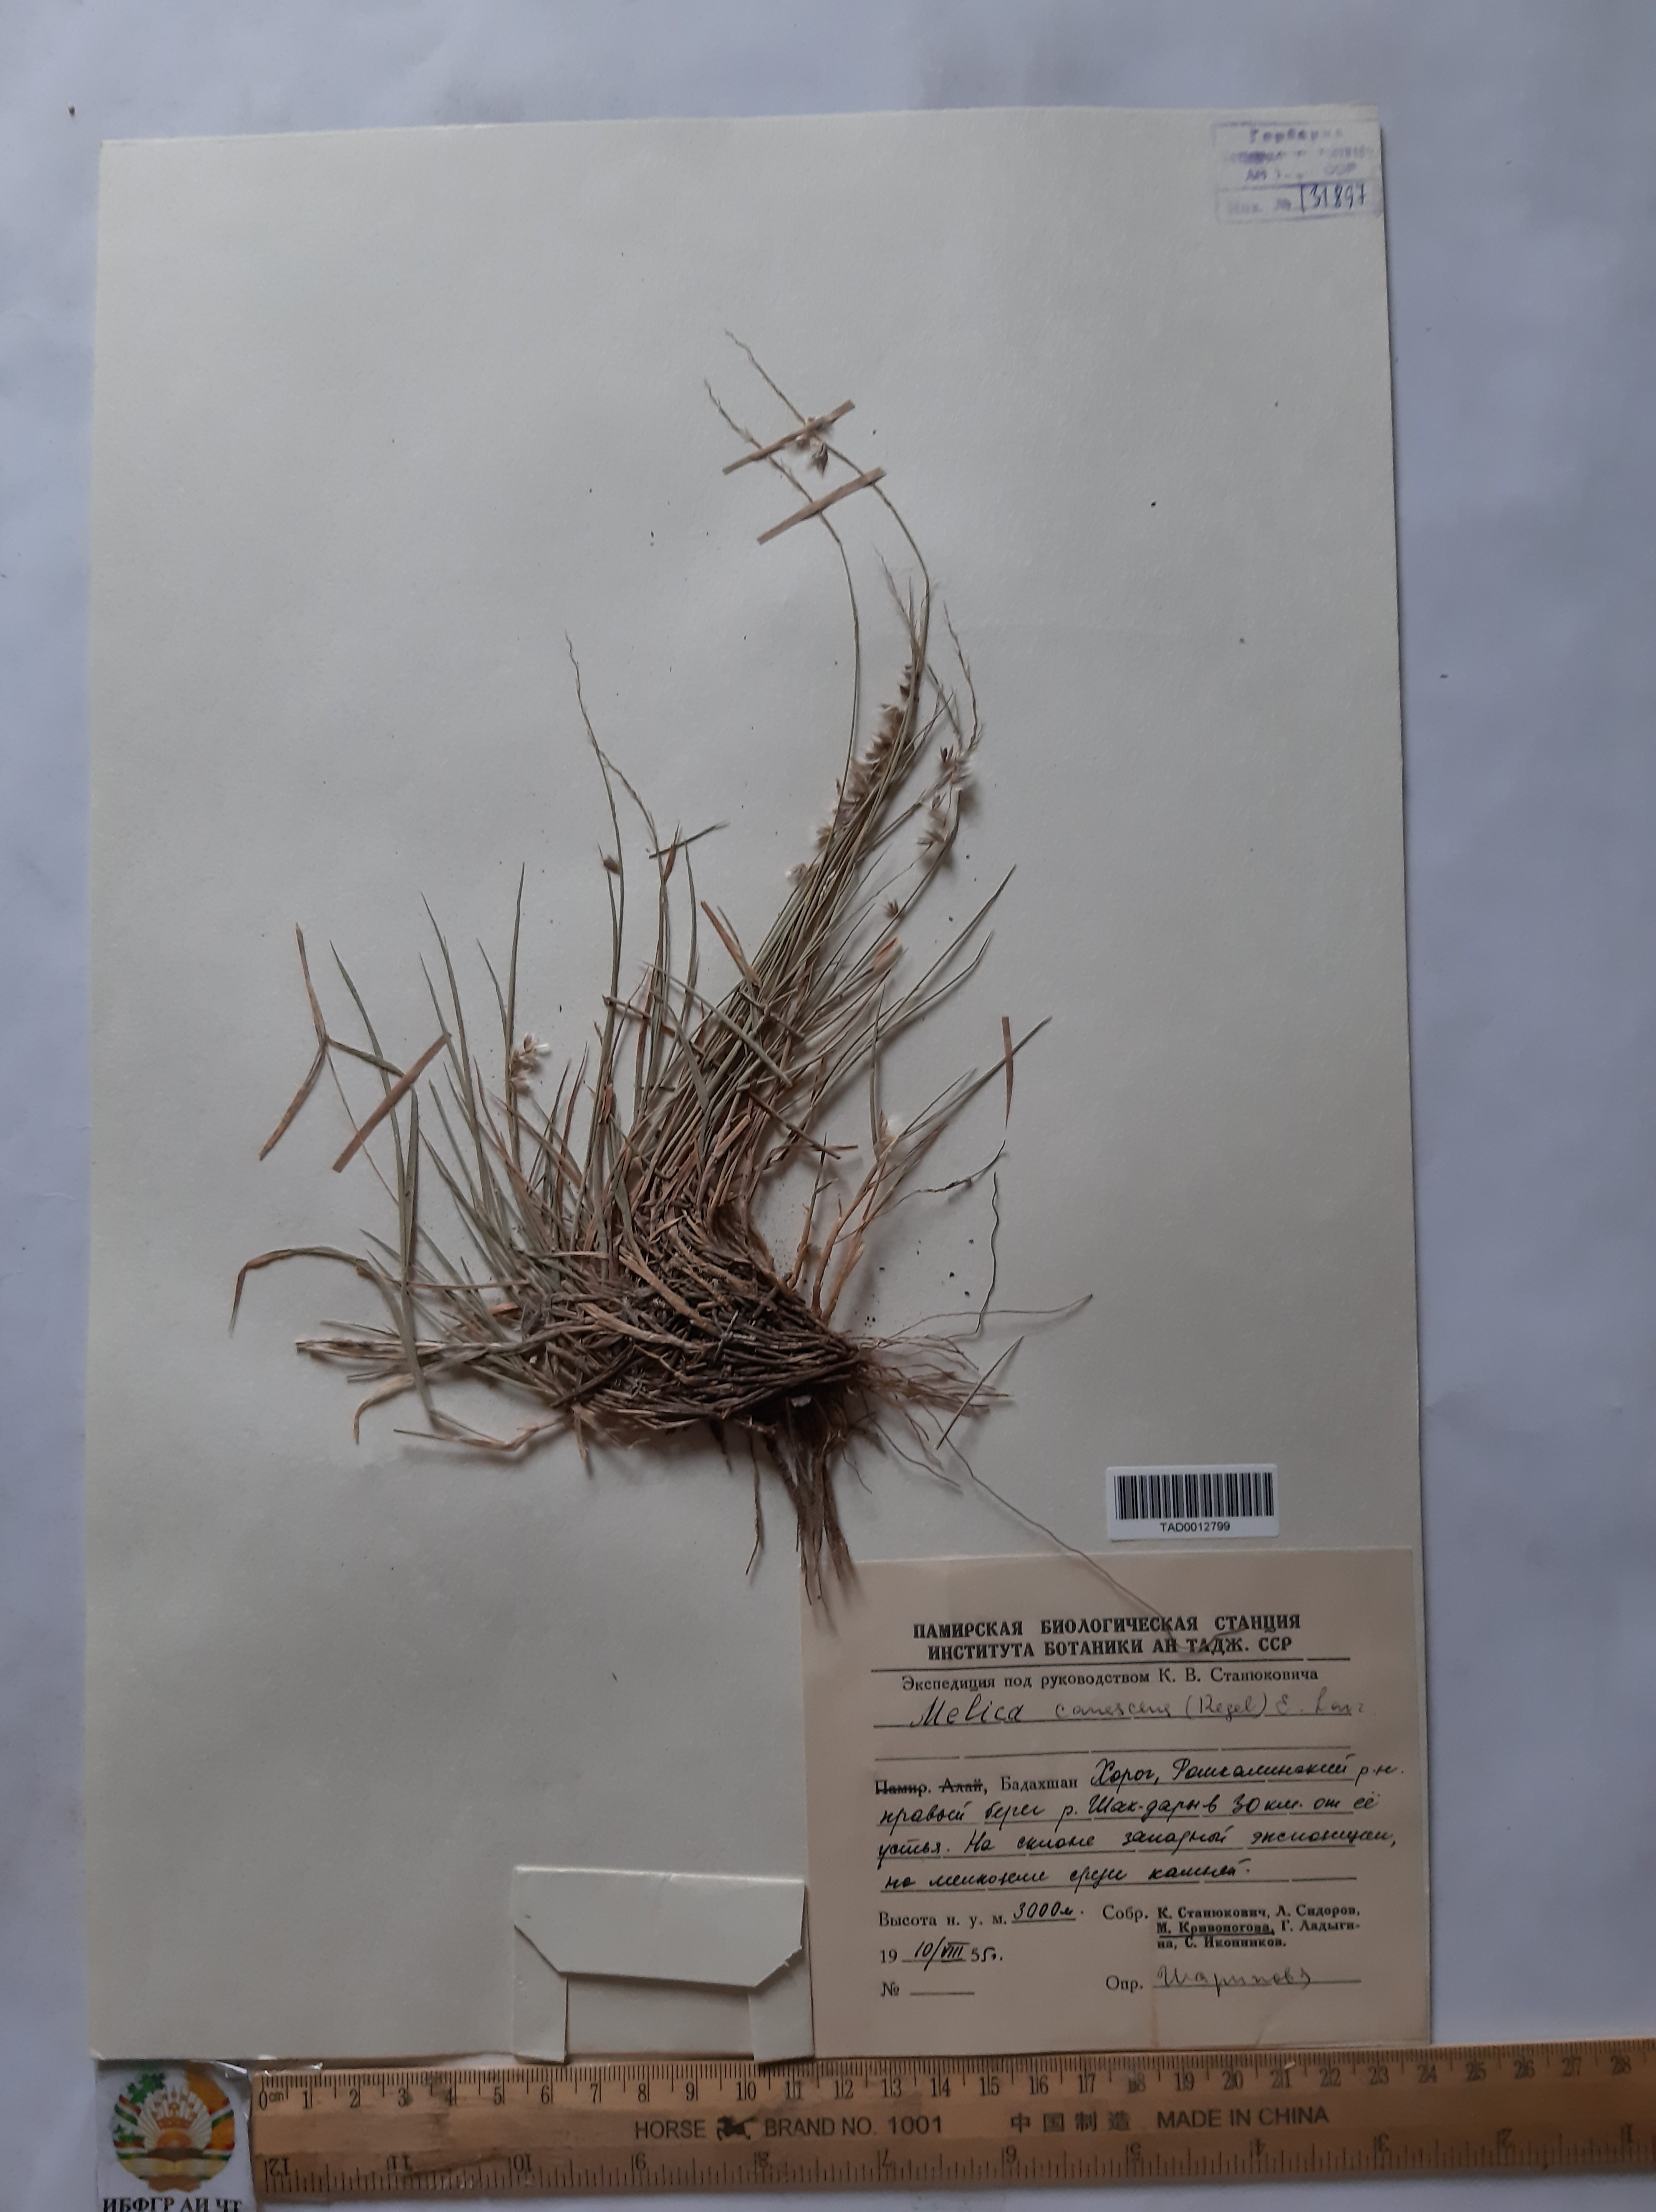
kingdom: Plantae
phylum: Tracheophyta
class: Liliopsida
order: Poales
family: Poaceae
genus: Melica
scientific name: Melica persica
